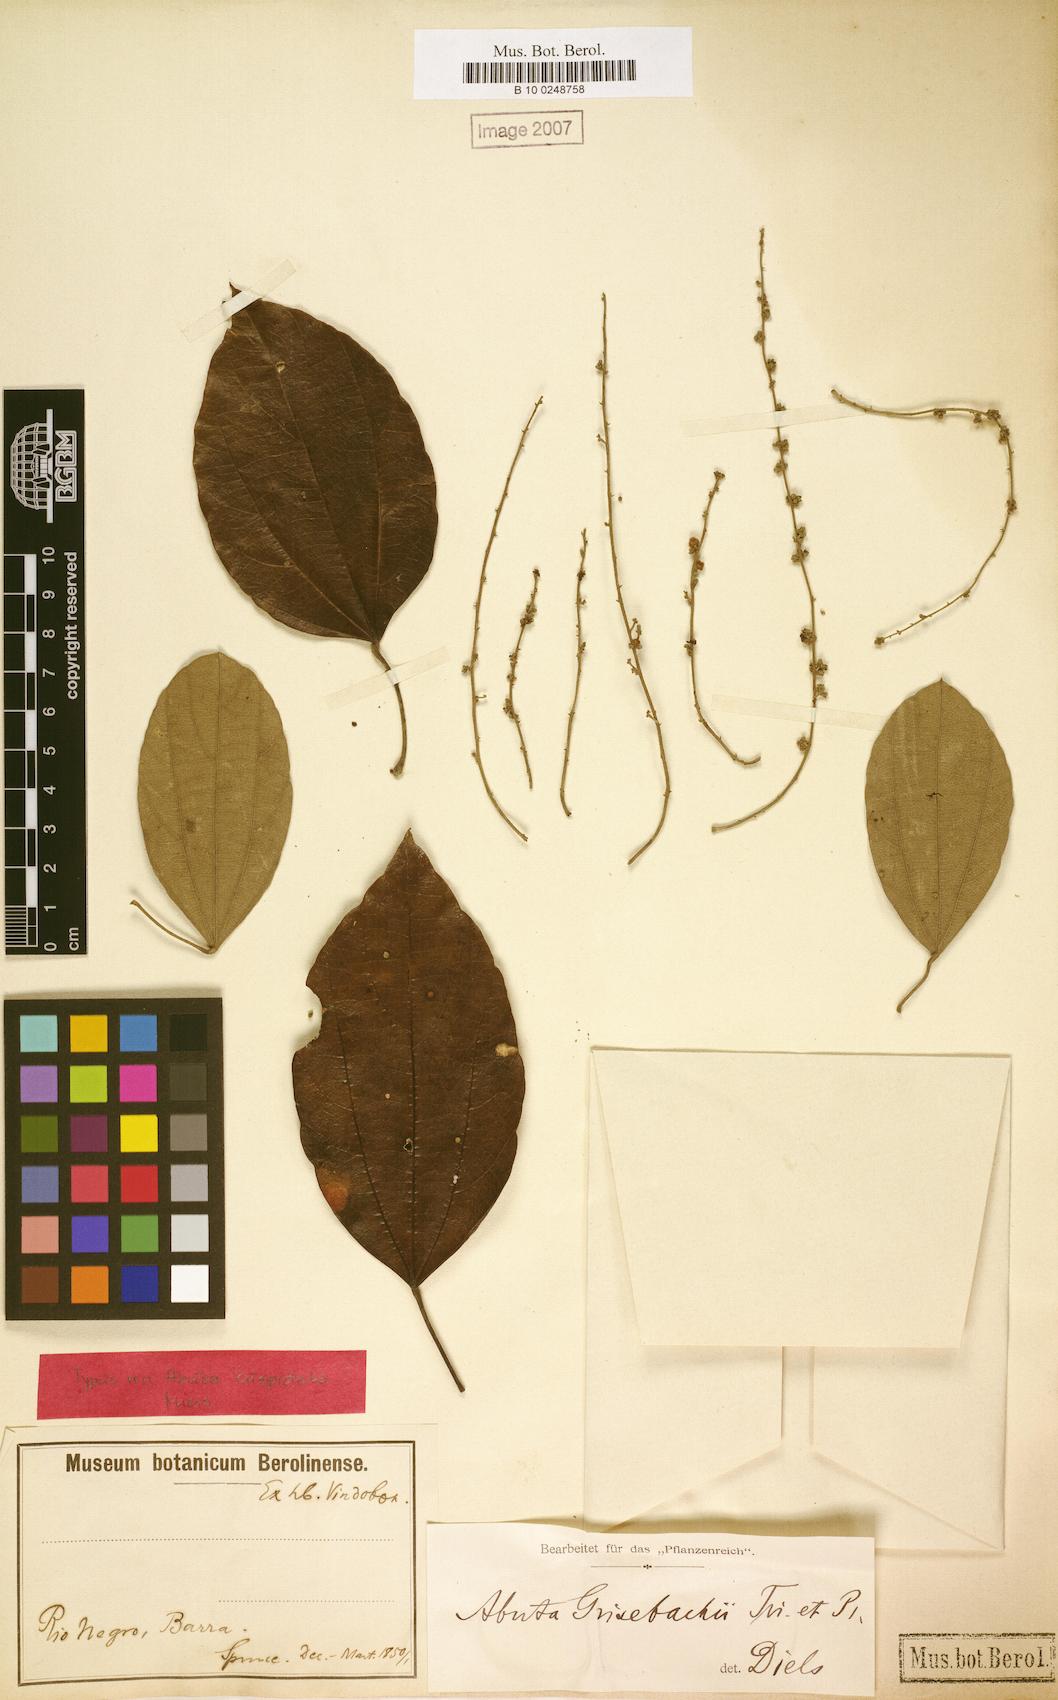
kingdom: Plantae
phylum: Tracheophyta
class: Magnoliopsida
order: Ranunculales
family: Menispermaceae
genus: Abuta
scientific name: Abuta grisebachii
